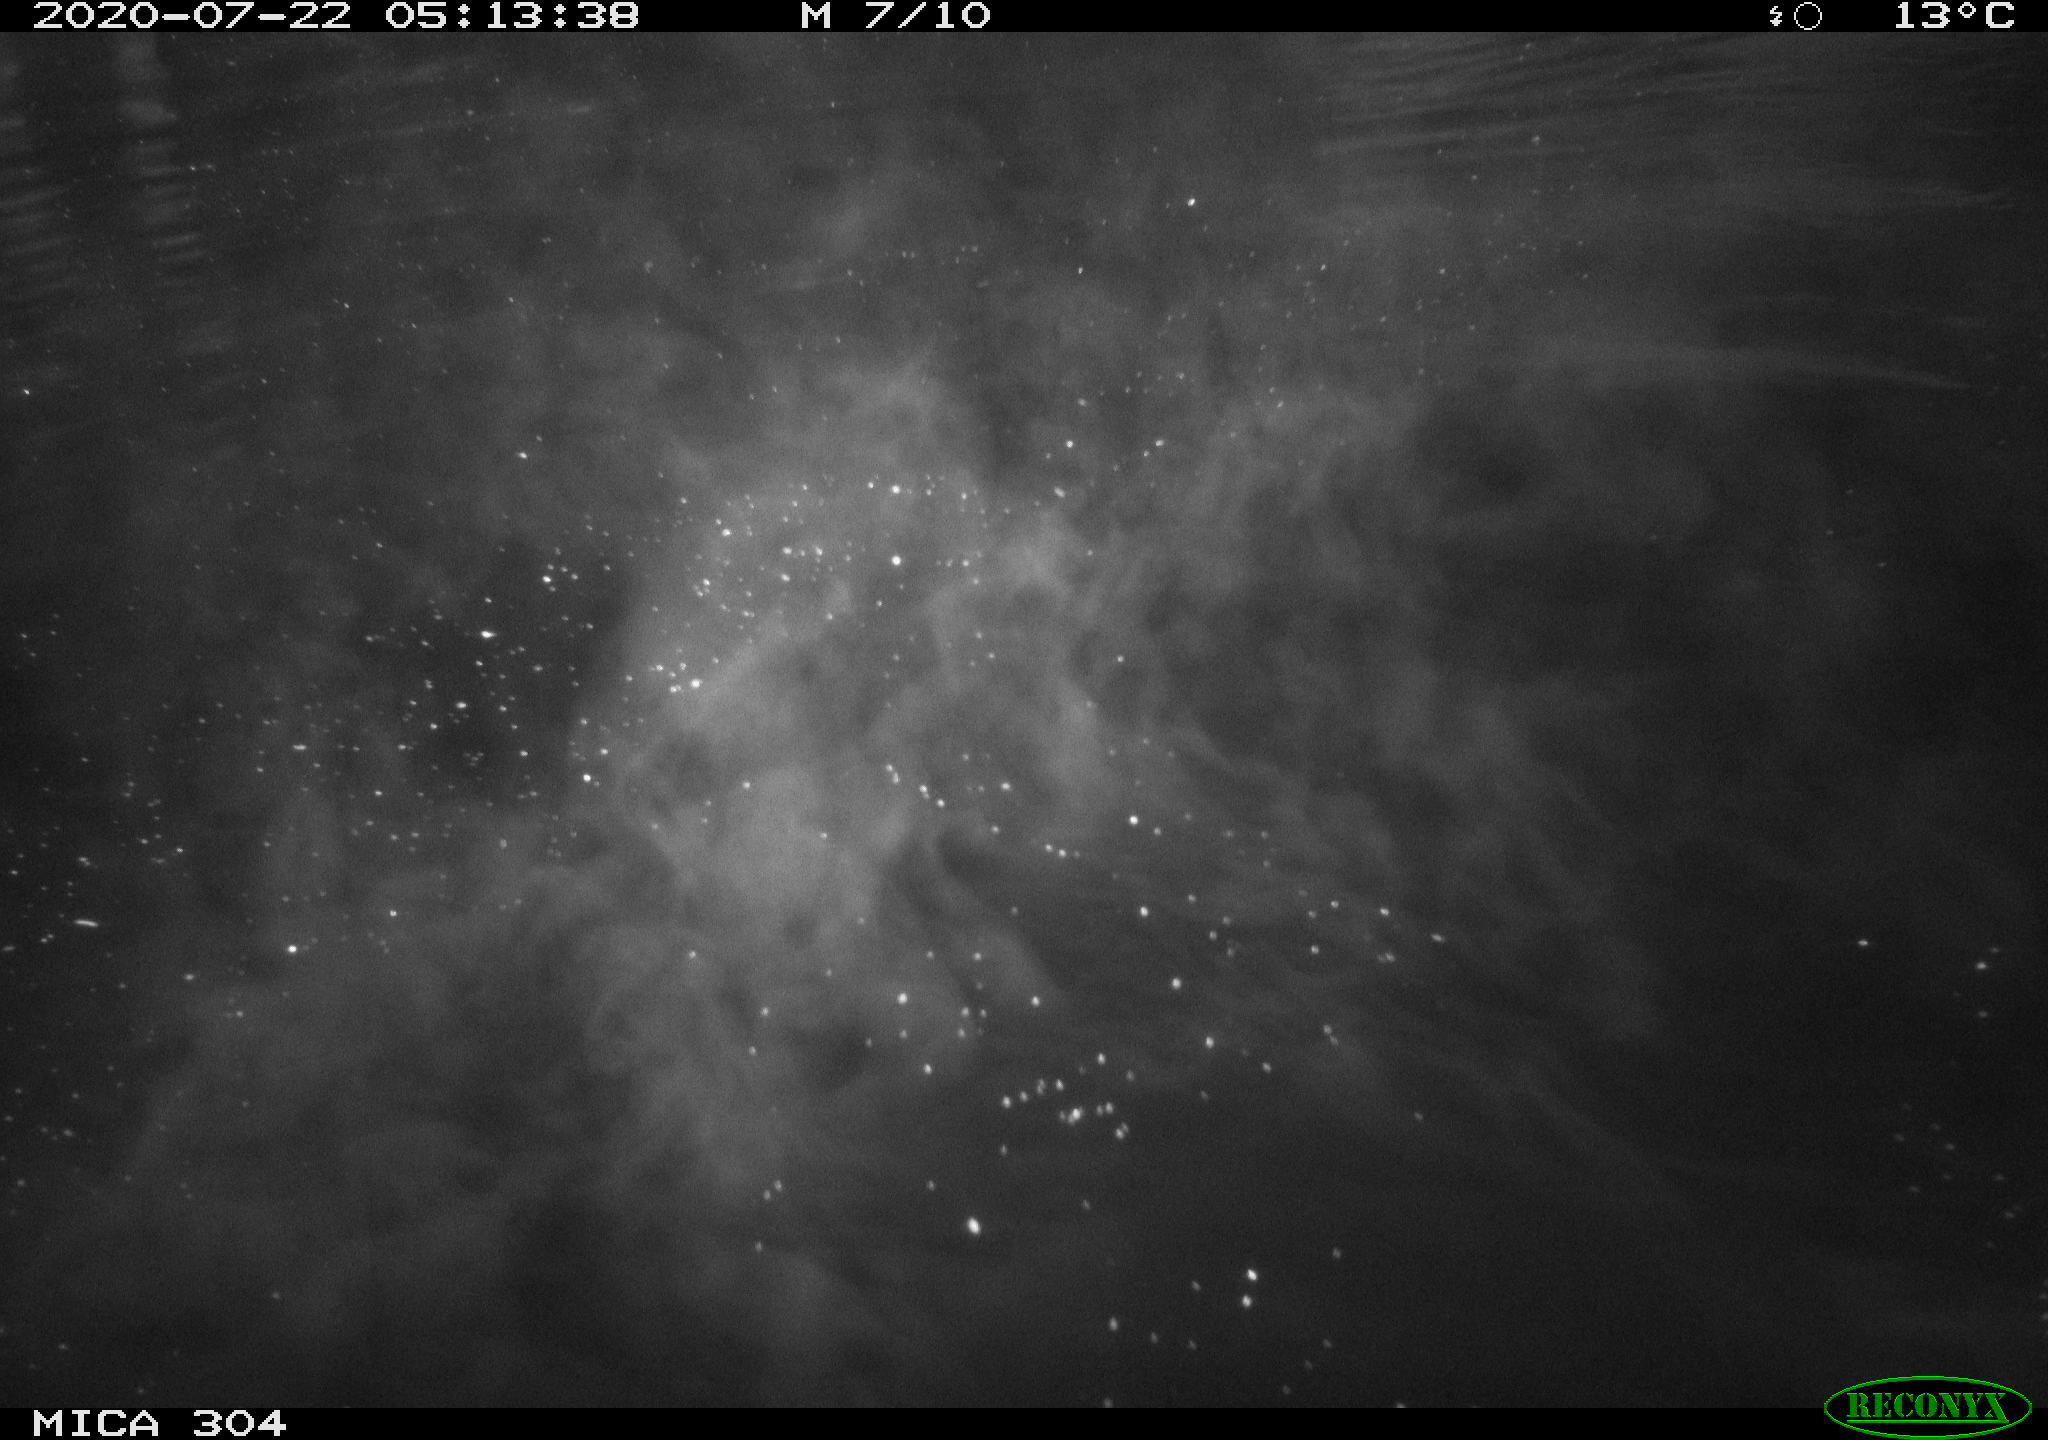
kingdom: Animalia
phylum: Chordata
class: Aves
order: Anseriformes
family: Anatidae
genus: Anas
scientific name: Anas platyrhynchos
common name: Mallard
